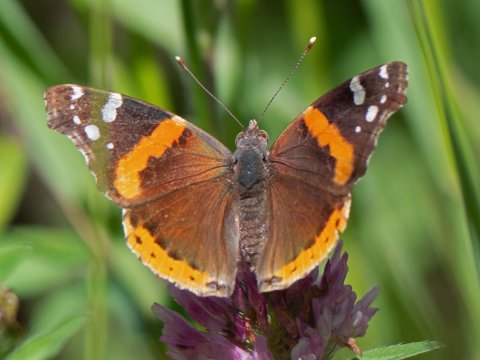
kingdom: Animalia
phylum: Arthropoda
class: Insecta
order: Lepidoptera
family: Nymphalidae
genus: Vanessa
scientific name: Vanessa atalanta
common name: Red Admiral
